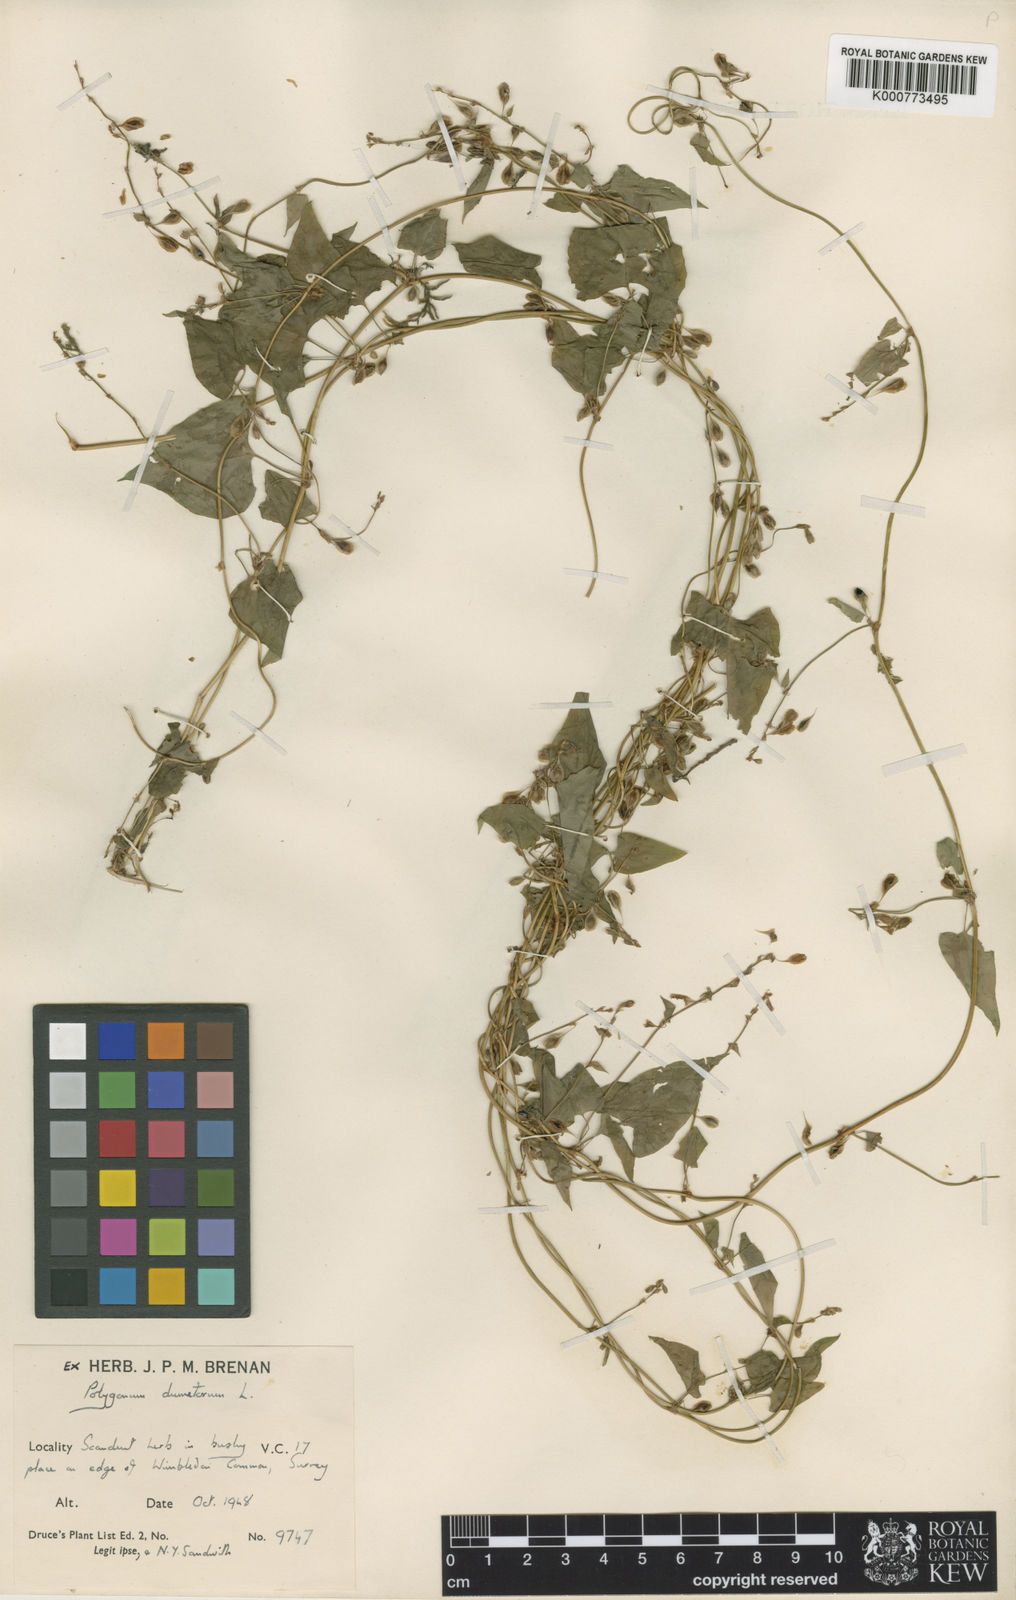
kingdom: Plantae
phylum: Tracheophyta
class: Magnoliopsida
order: Caryophyllales
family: Polygonaceae
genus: Fallopia
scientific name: Fallopia dumetorum
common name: Copse-bindweed
